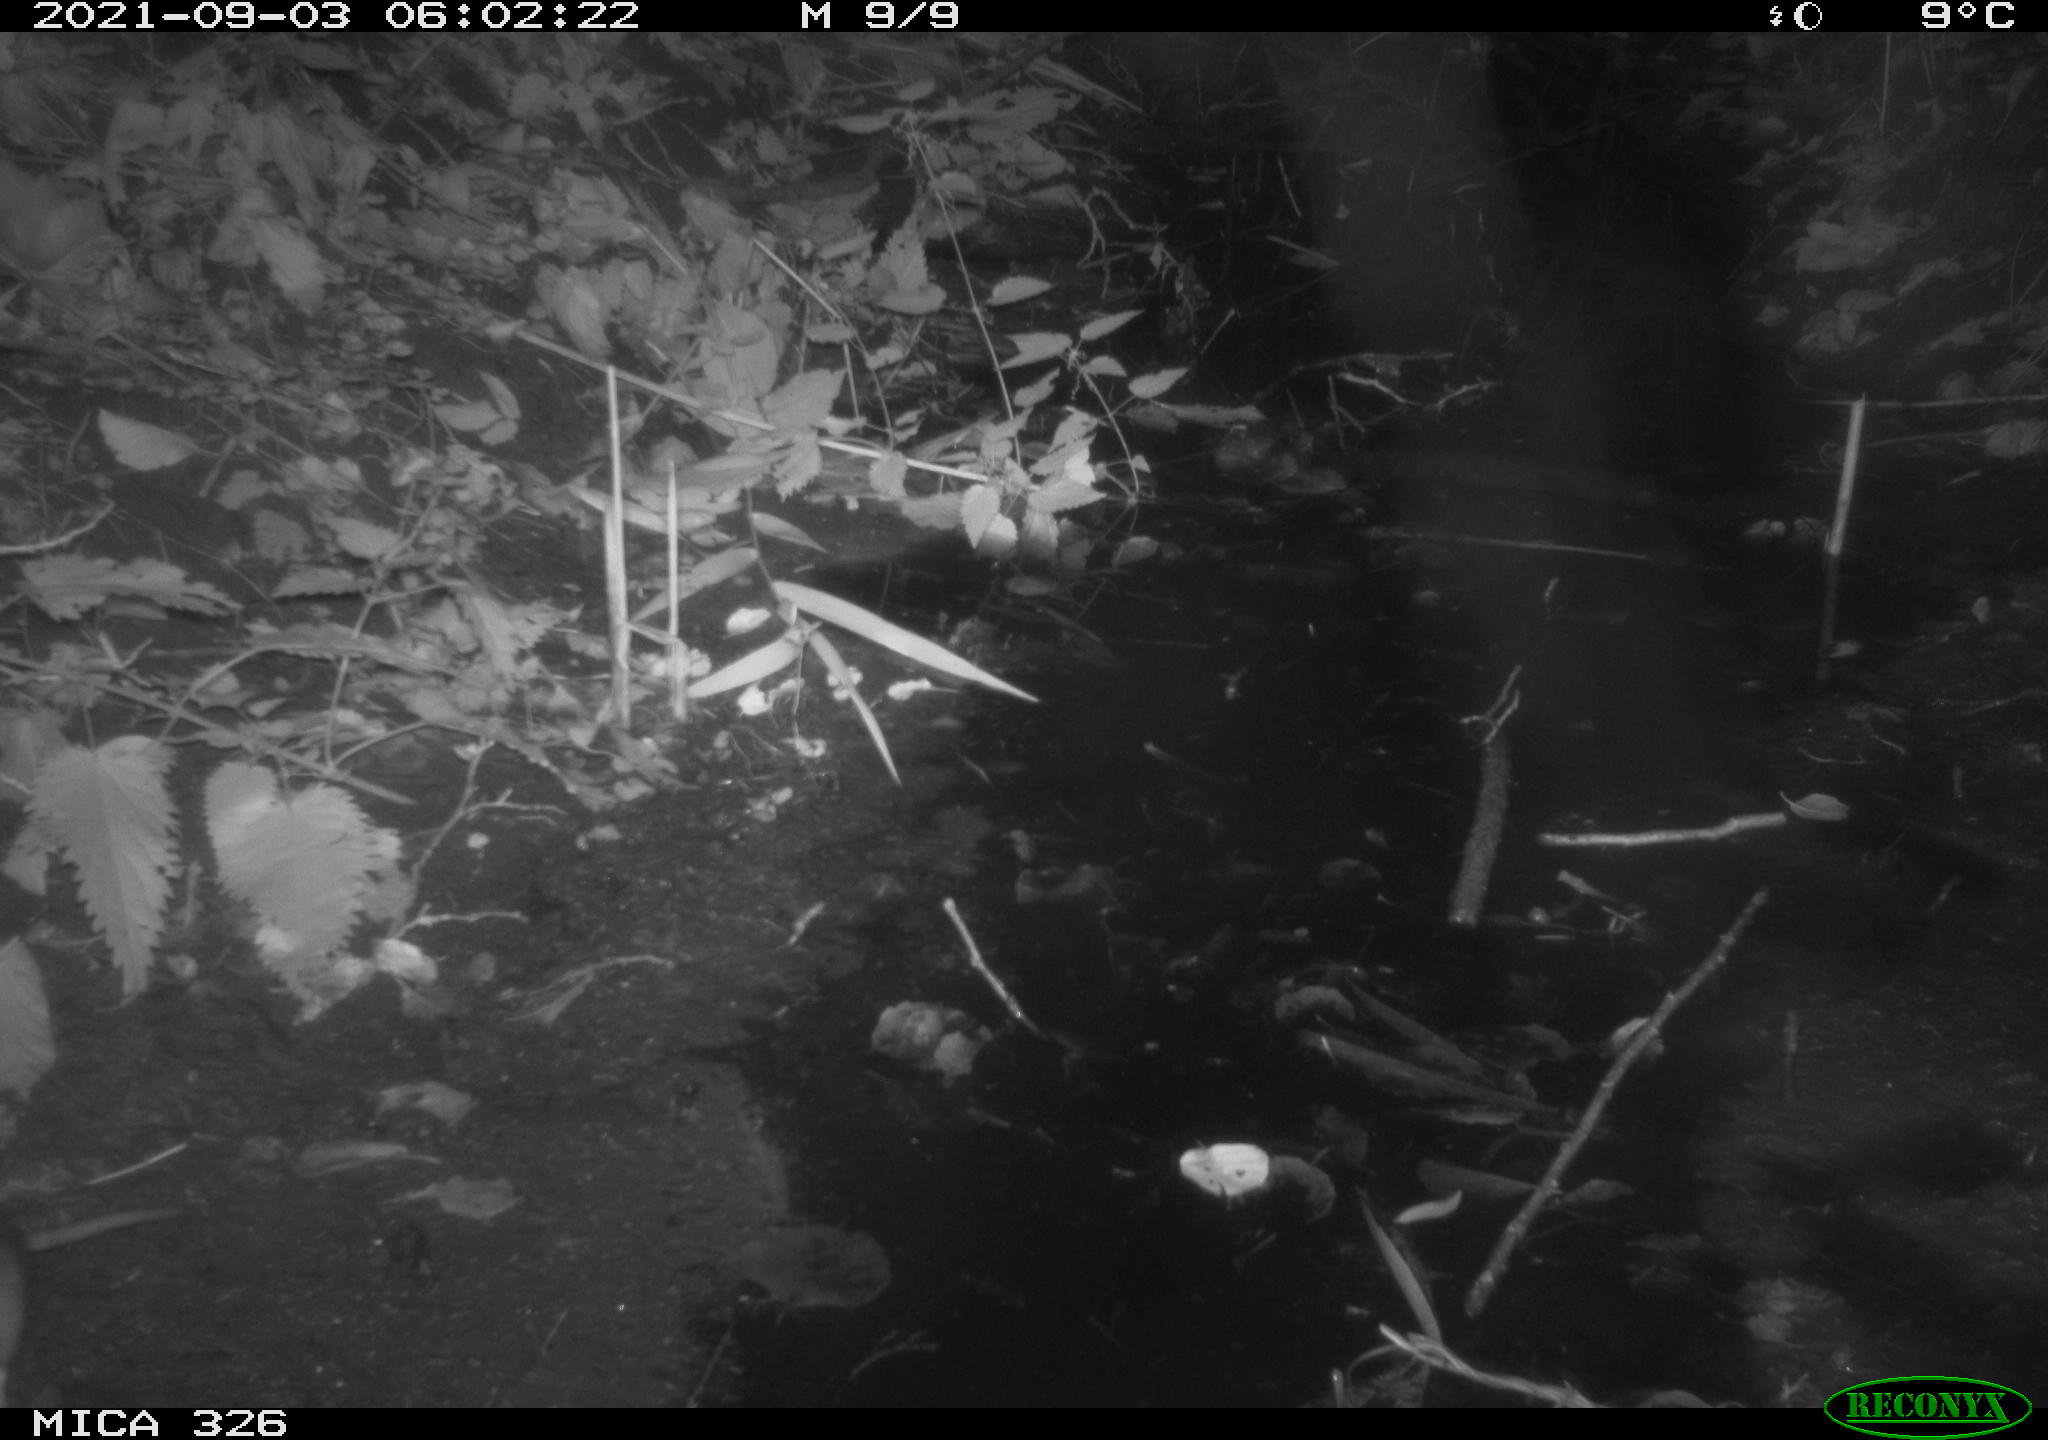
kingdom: Animalia
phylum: Chordata
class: Mammalia
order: Rodentia
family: Muridae
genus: Rattus
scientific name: Rattus norvegicus
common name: Brown rat
